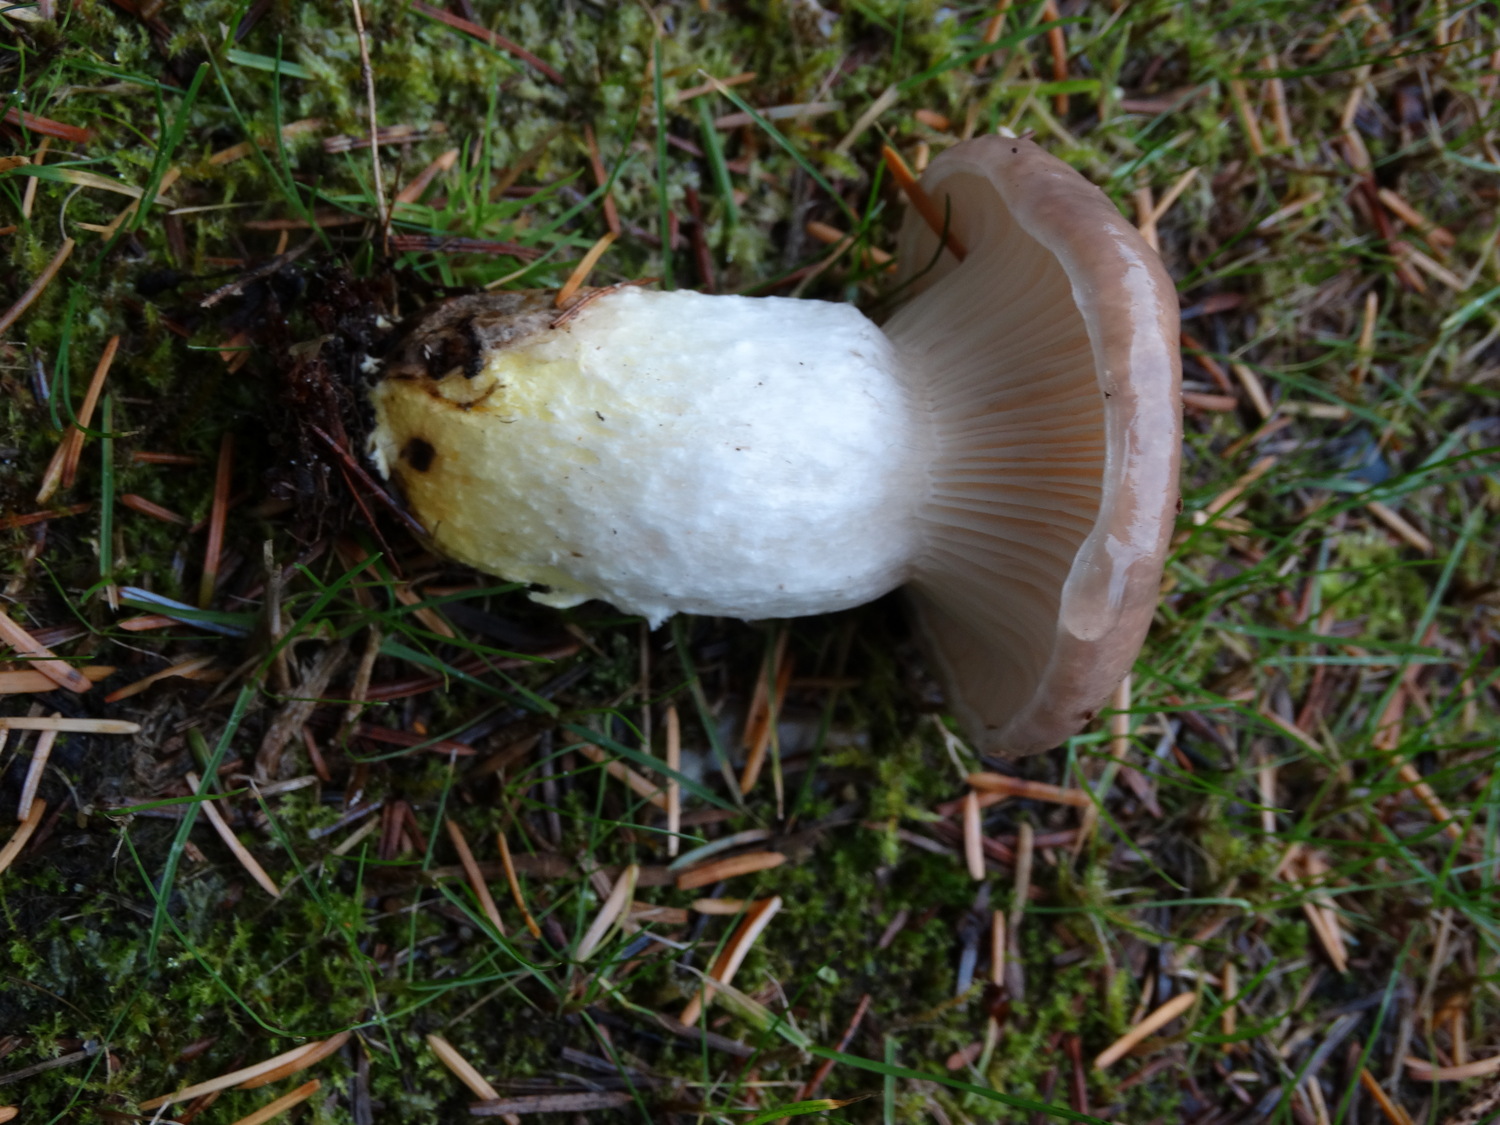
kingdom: Fungi
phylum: Basidiomycota
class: Agaricomycetes
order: Boletales
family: Gomphidiaceae
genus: Gomphidius
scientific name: Gomphidius glutinosus
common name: grå slimslør
